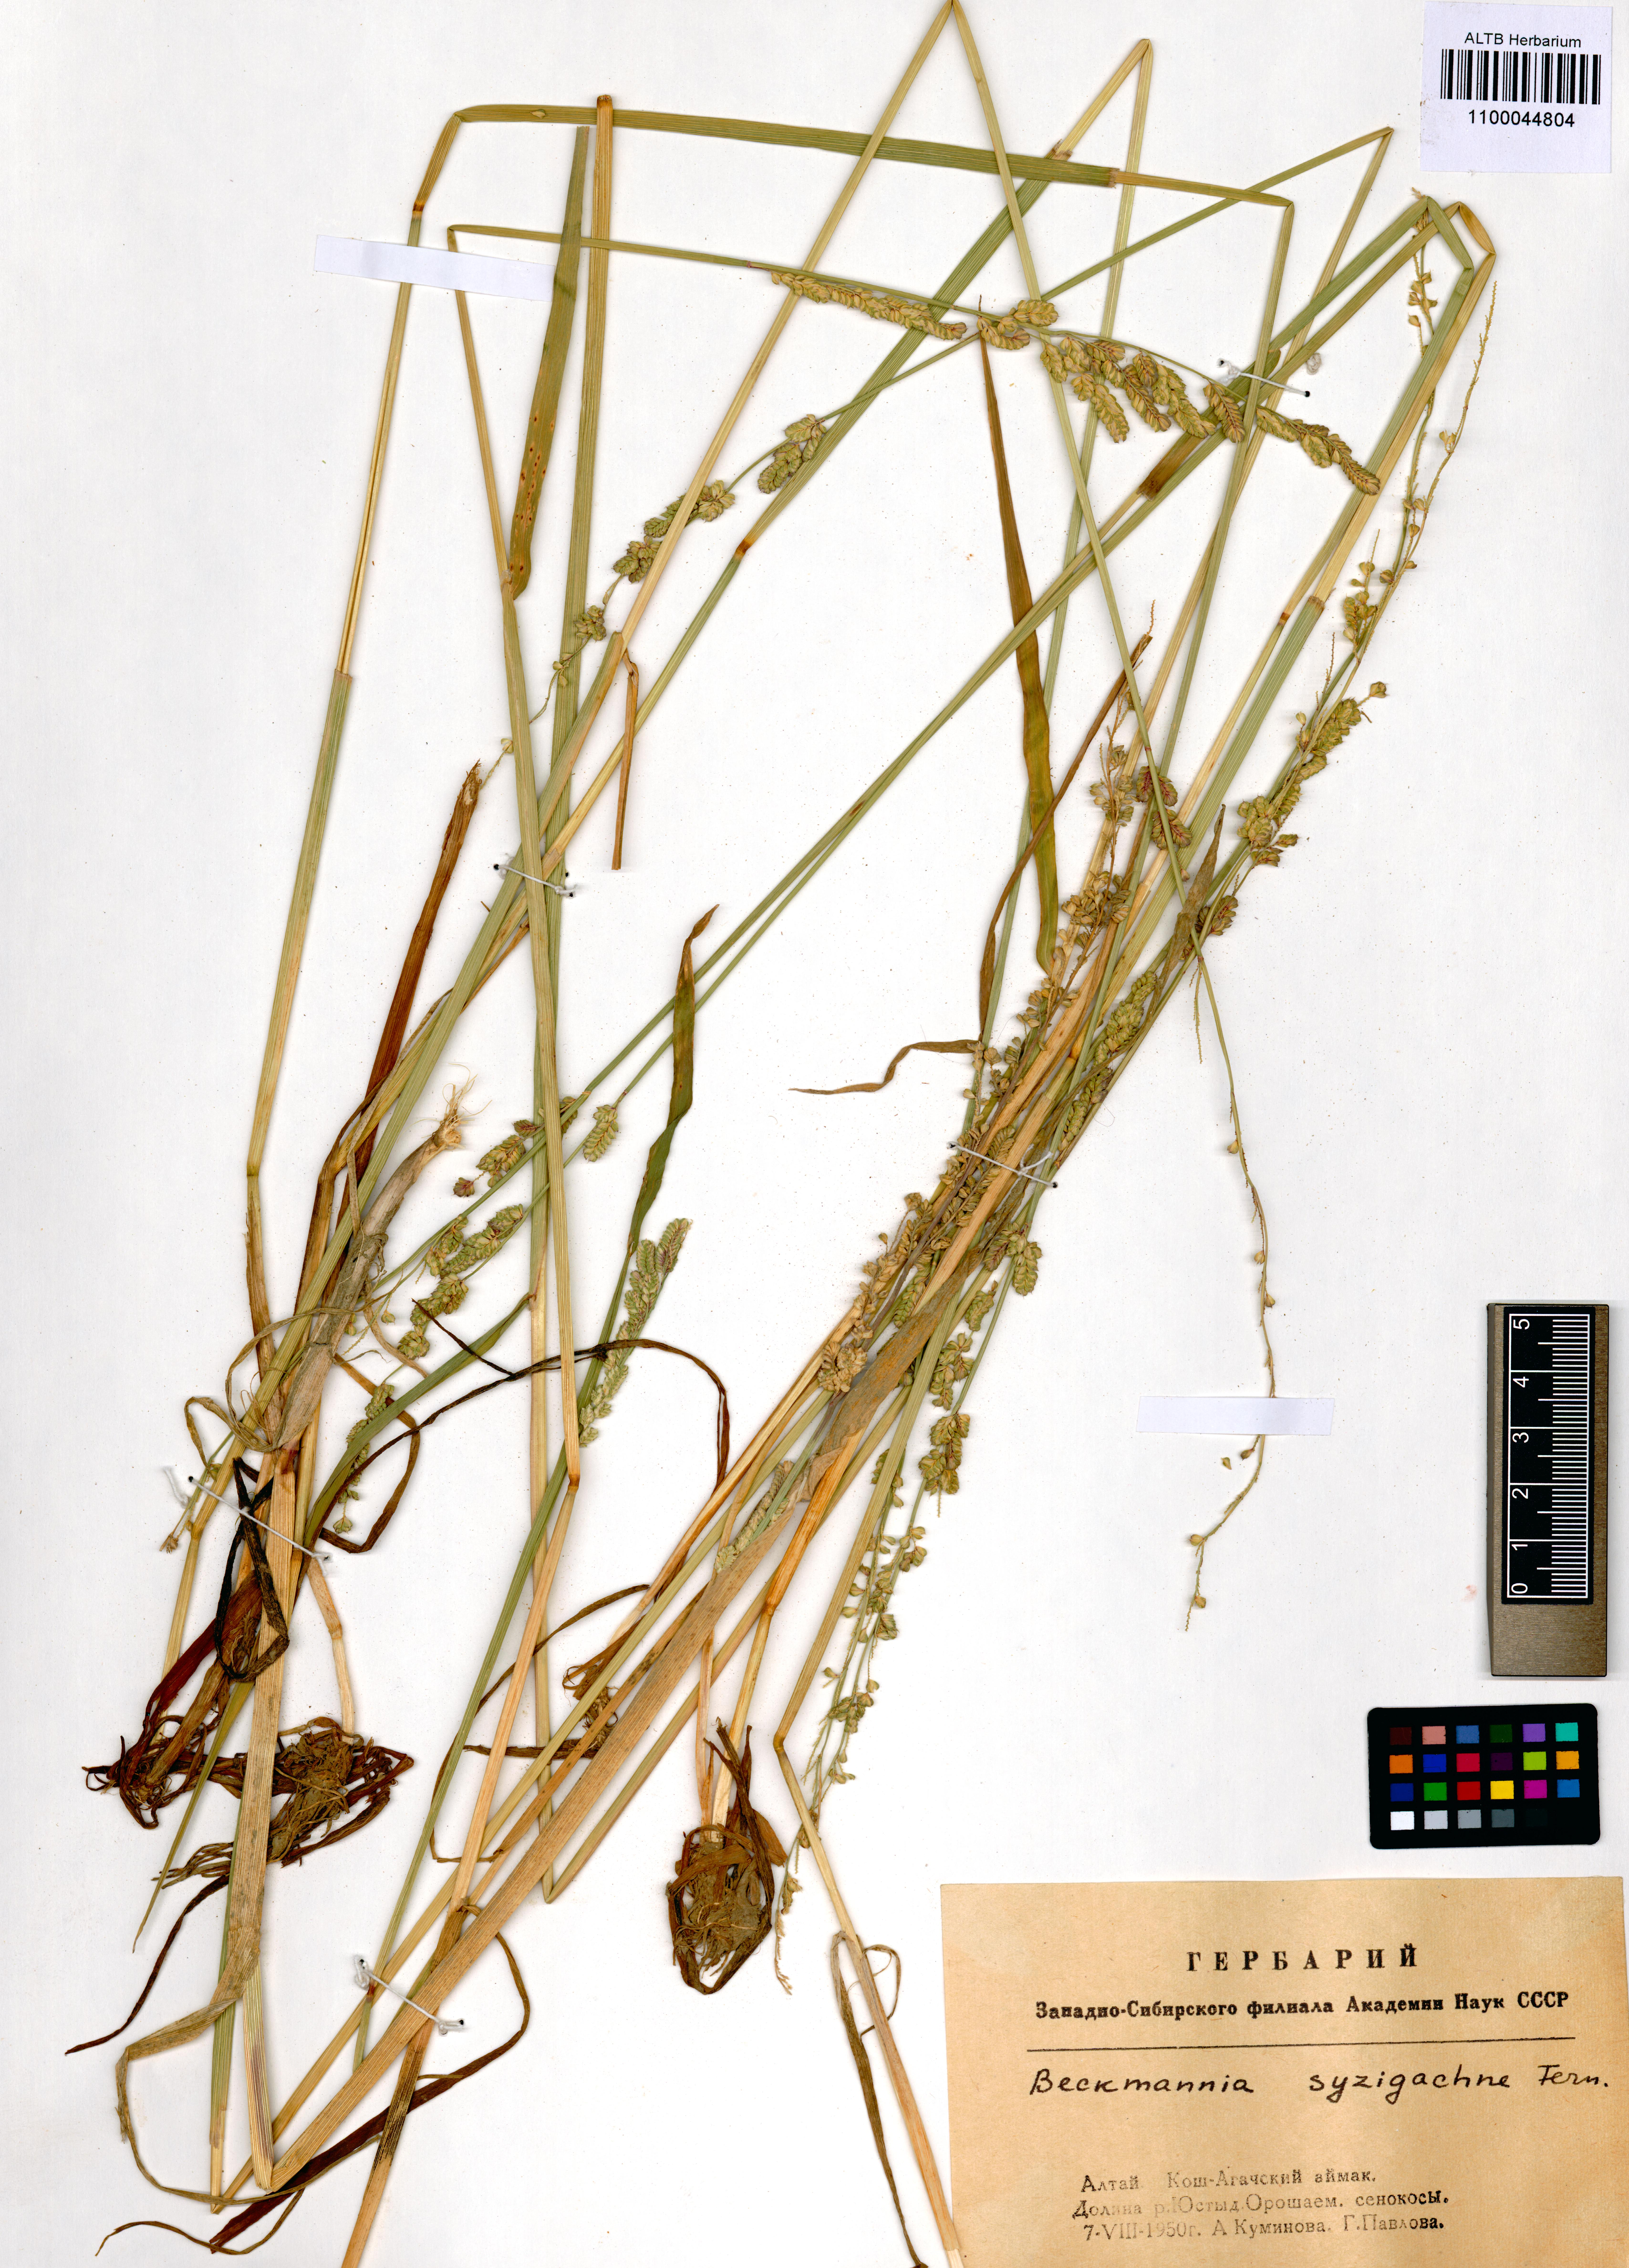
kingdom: Plantae
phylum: Tracheophyta
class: Liliopsida
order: Poales
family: Poaceae
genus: Beckmannia
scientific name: Beckmannia syzigachne
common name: American slough-grass
